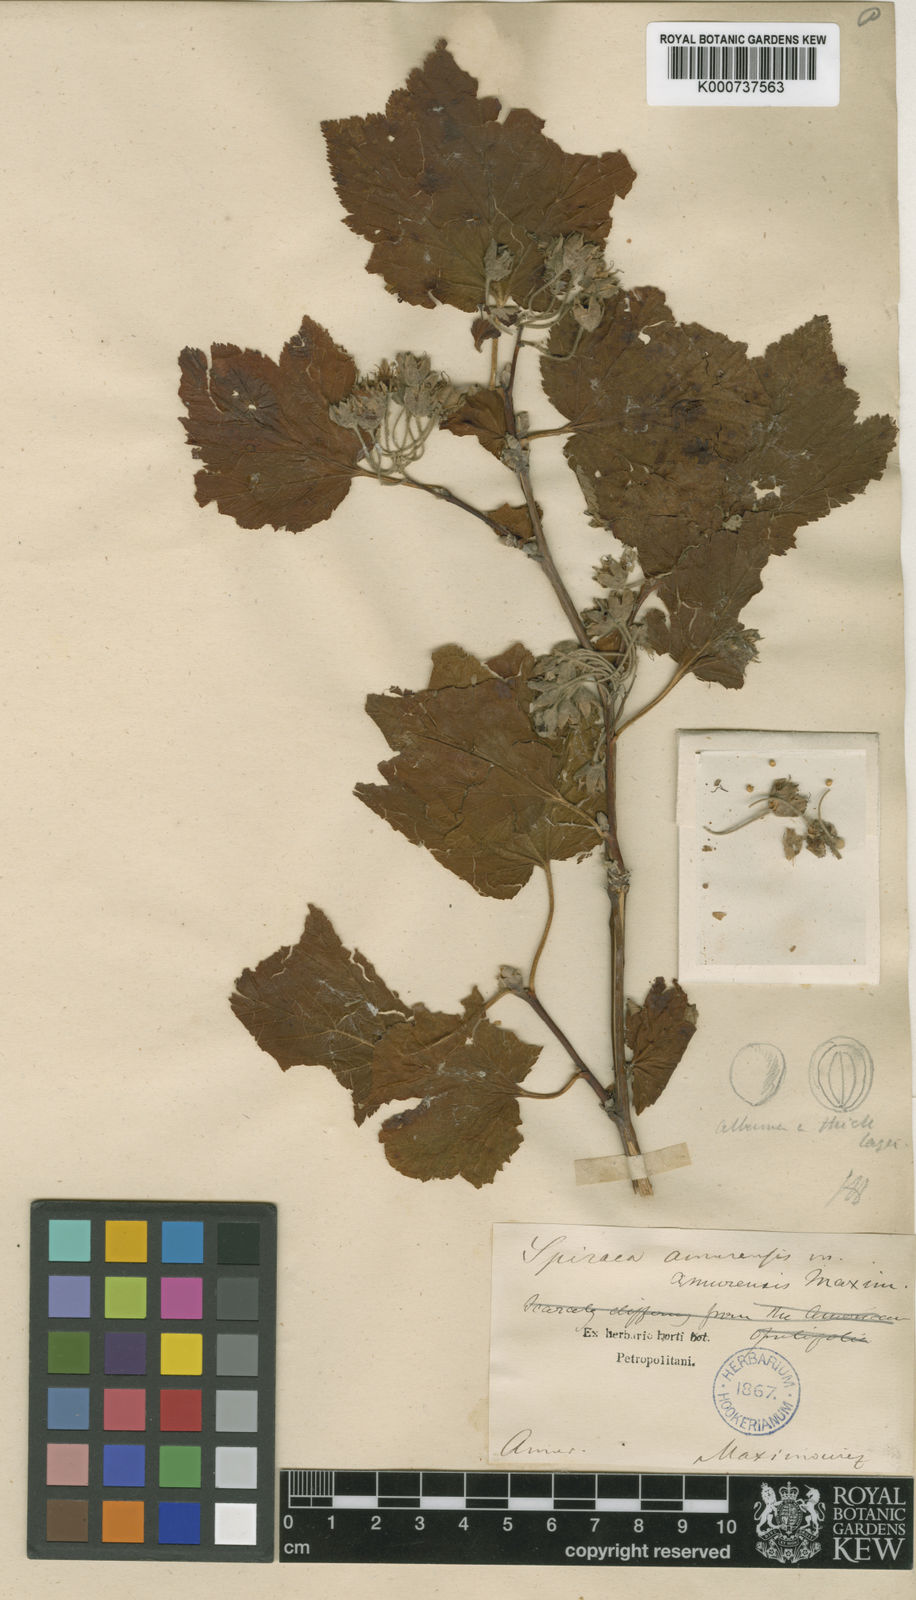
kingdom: Plantae
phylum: Tracheophyta
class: Magnoliopsida
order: Rosales
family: Rosaceae
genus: Physocarpus
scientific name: Physocarpus amurensis
